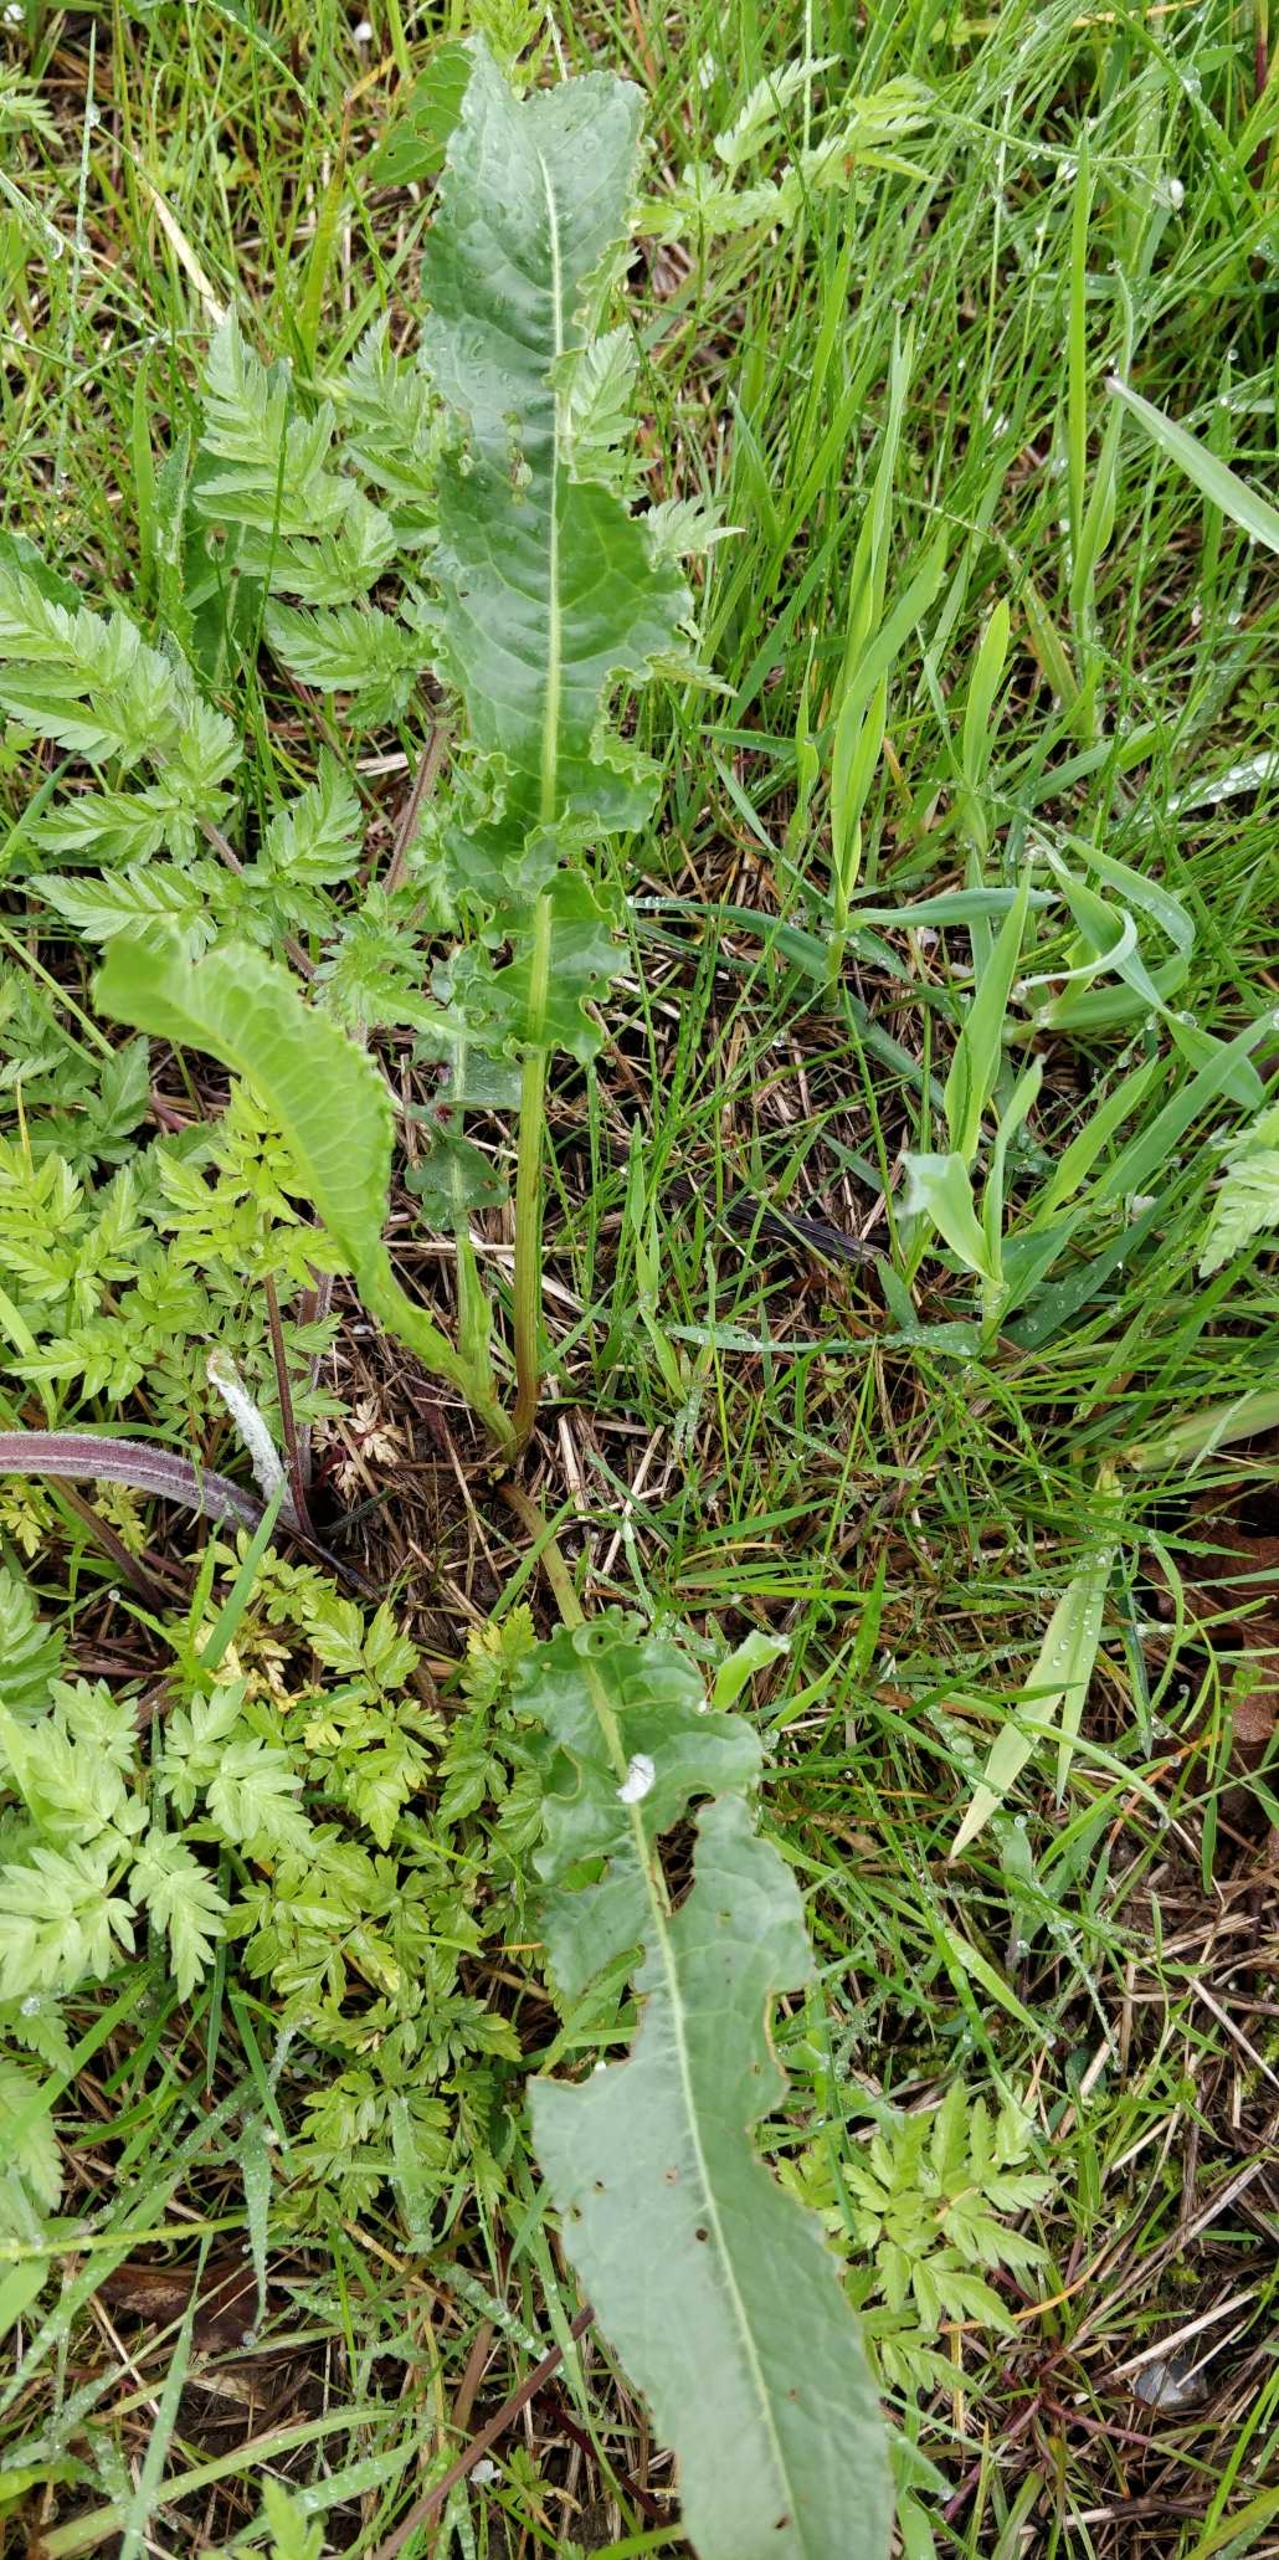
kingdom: Plantae
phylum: Tracheophyta
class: Magnoliopsida
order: Caryophyllales
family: Polygonaceae
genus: Rumex
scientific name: Rumex crispus
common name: Kruset skræppe
